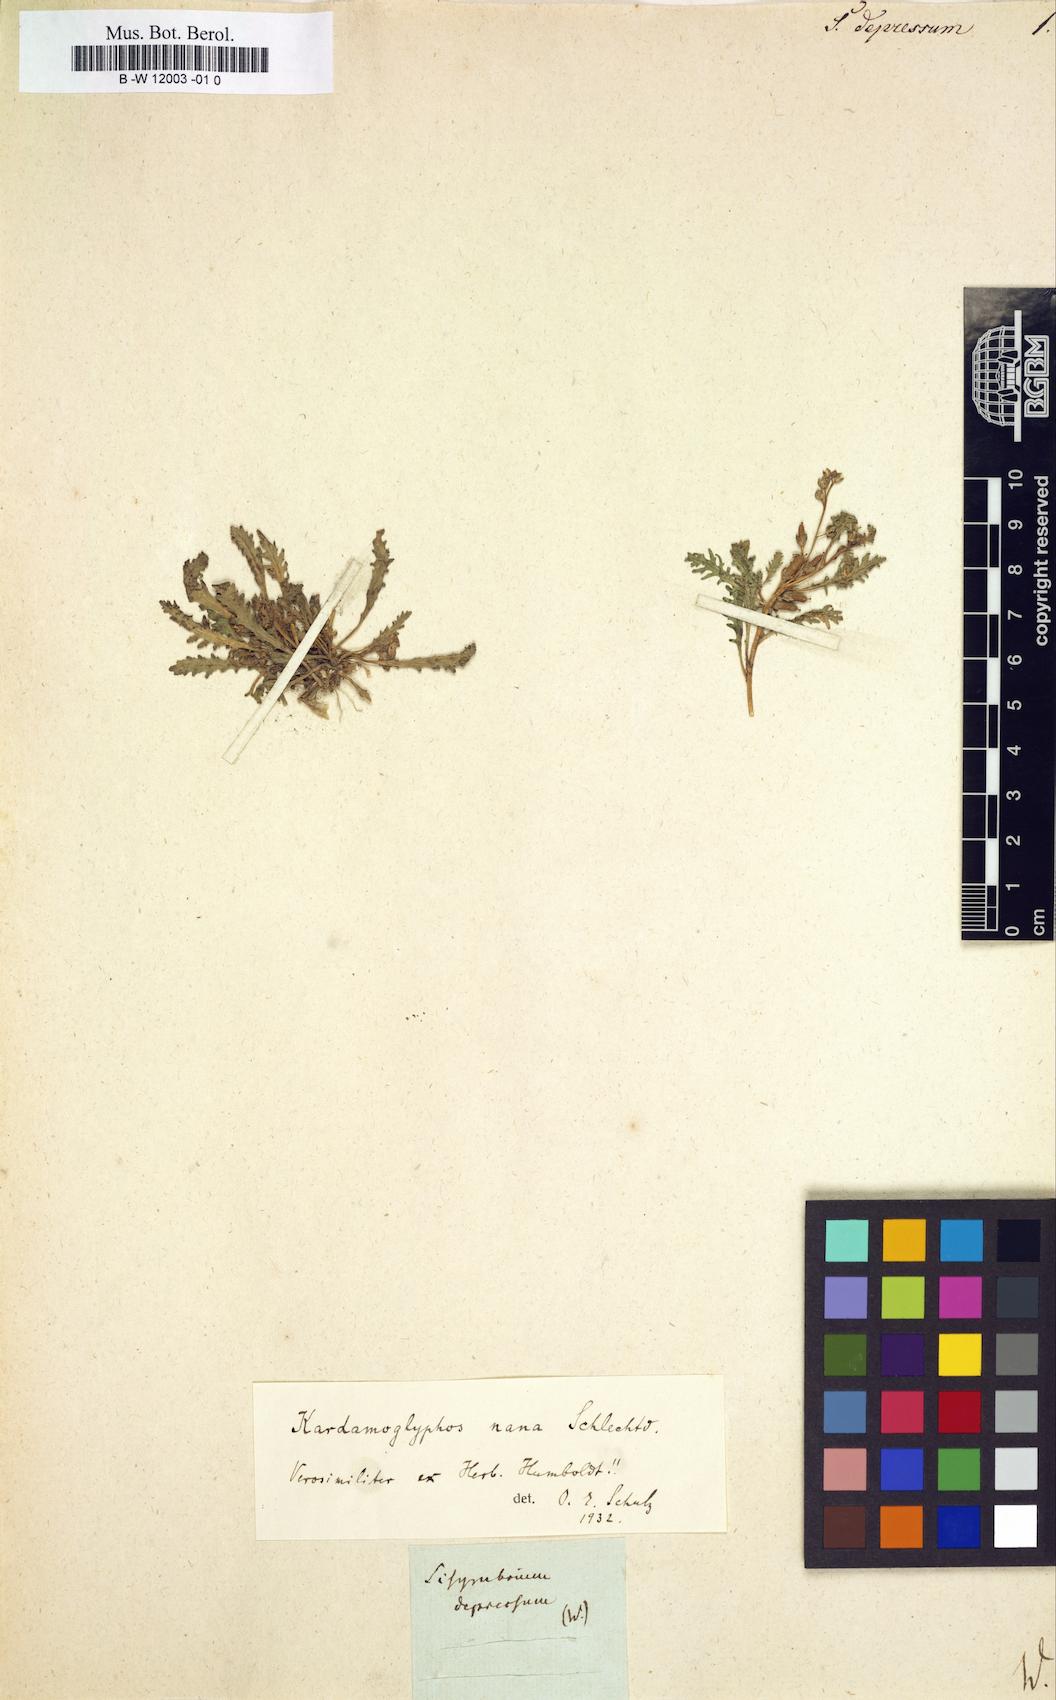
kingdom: Plantae
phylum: Tracheophyta
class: Magnoliopsida
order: Brassicales
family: Brassicaceae
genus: Descurainia
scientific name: Descurainia depressa
